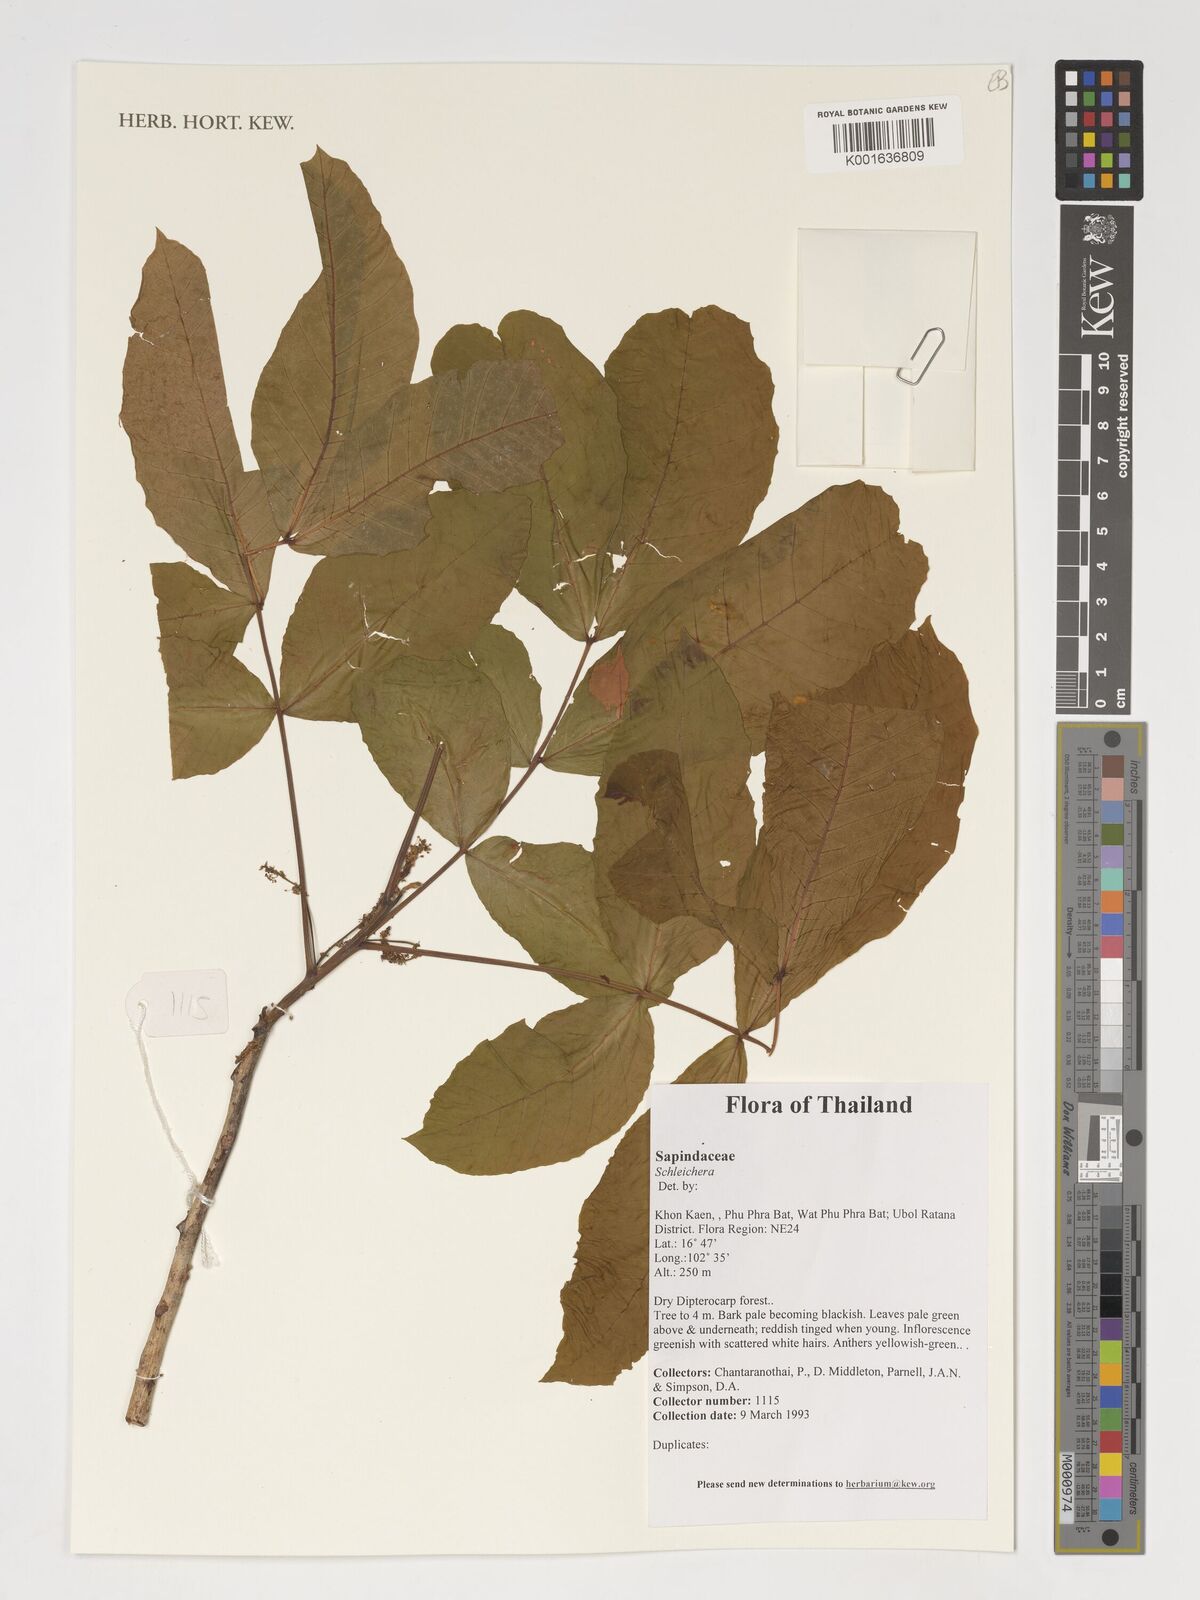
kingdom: Plantae
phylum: Tracheophyta
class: Magnoliopsida
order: Sapindales
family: Sapindaceae
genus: Schleichera
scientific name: Schleichera
